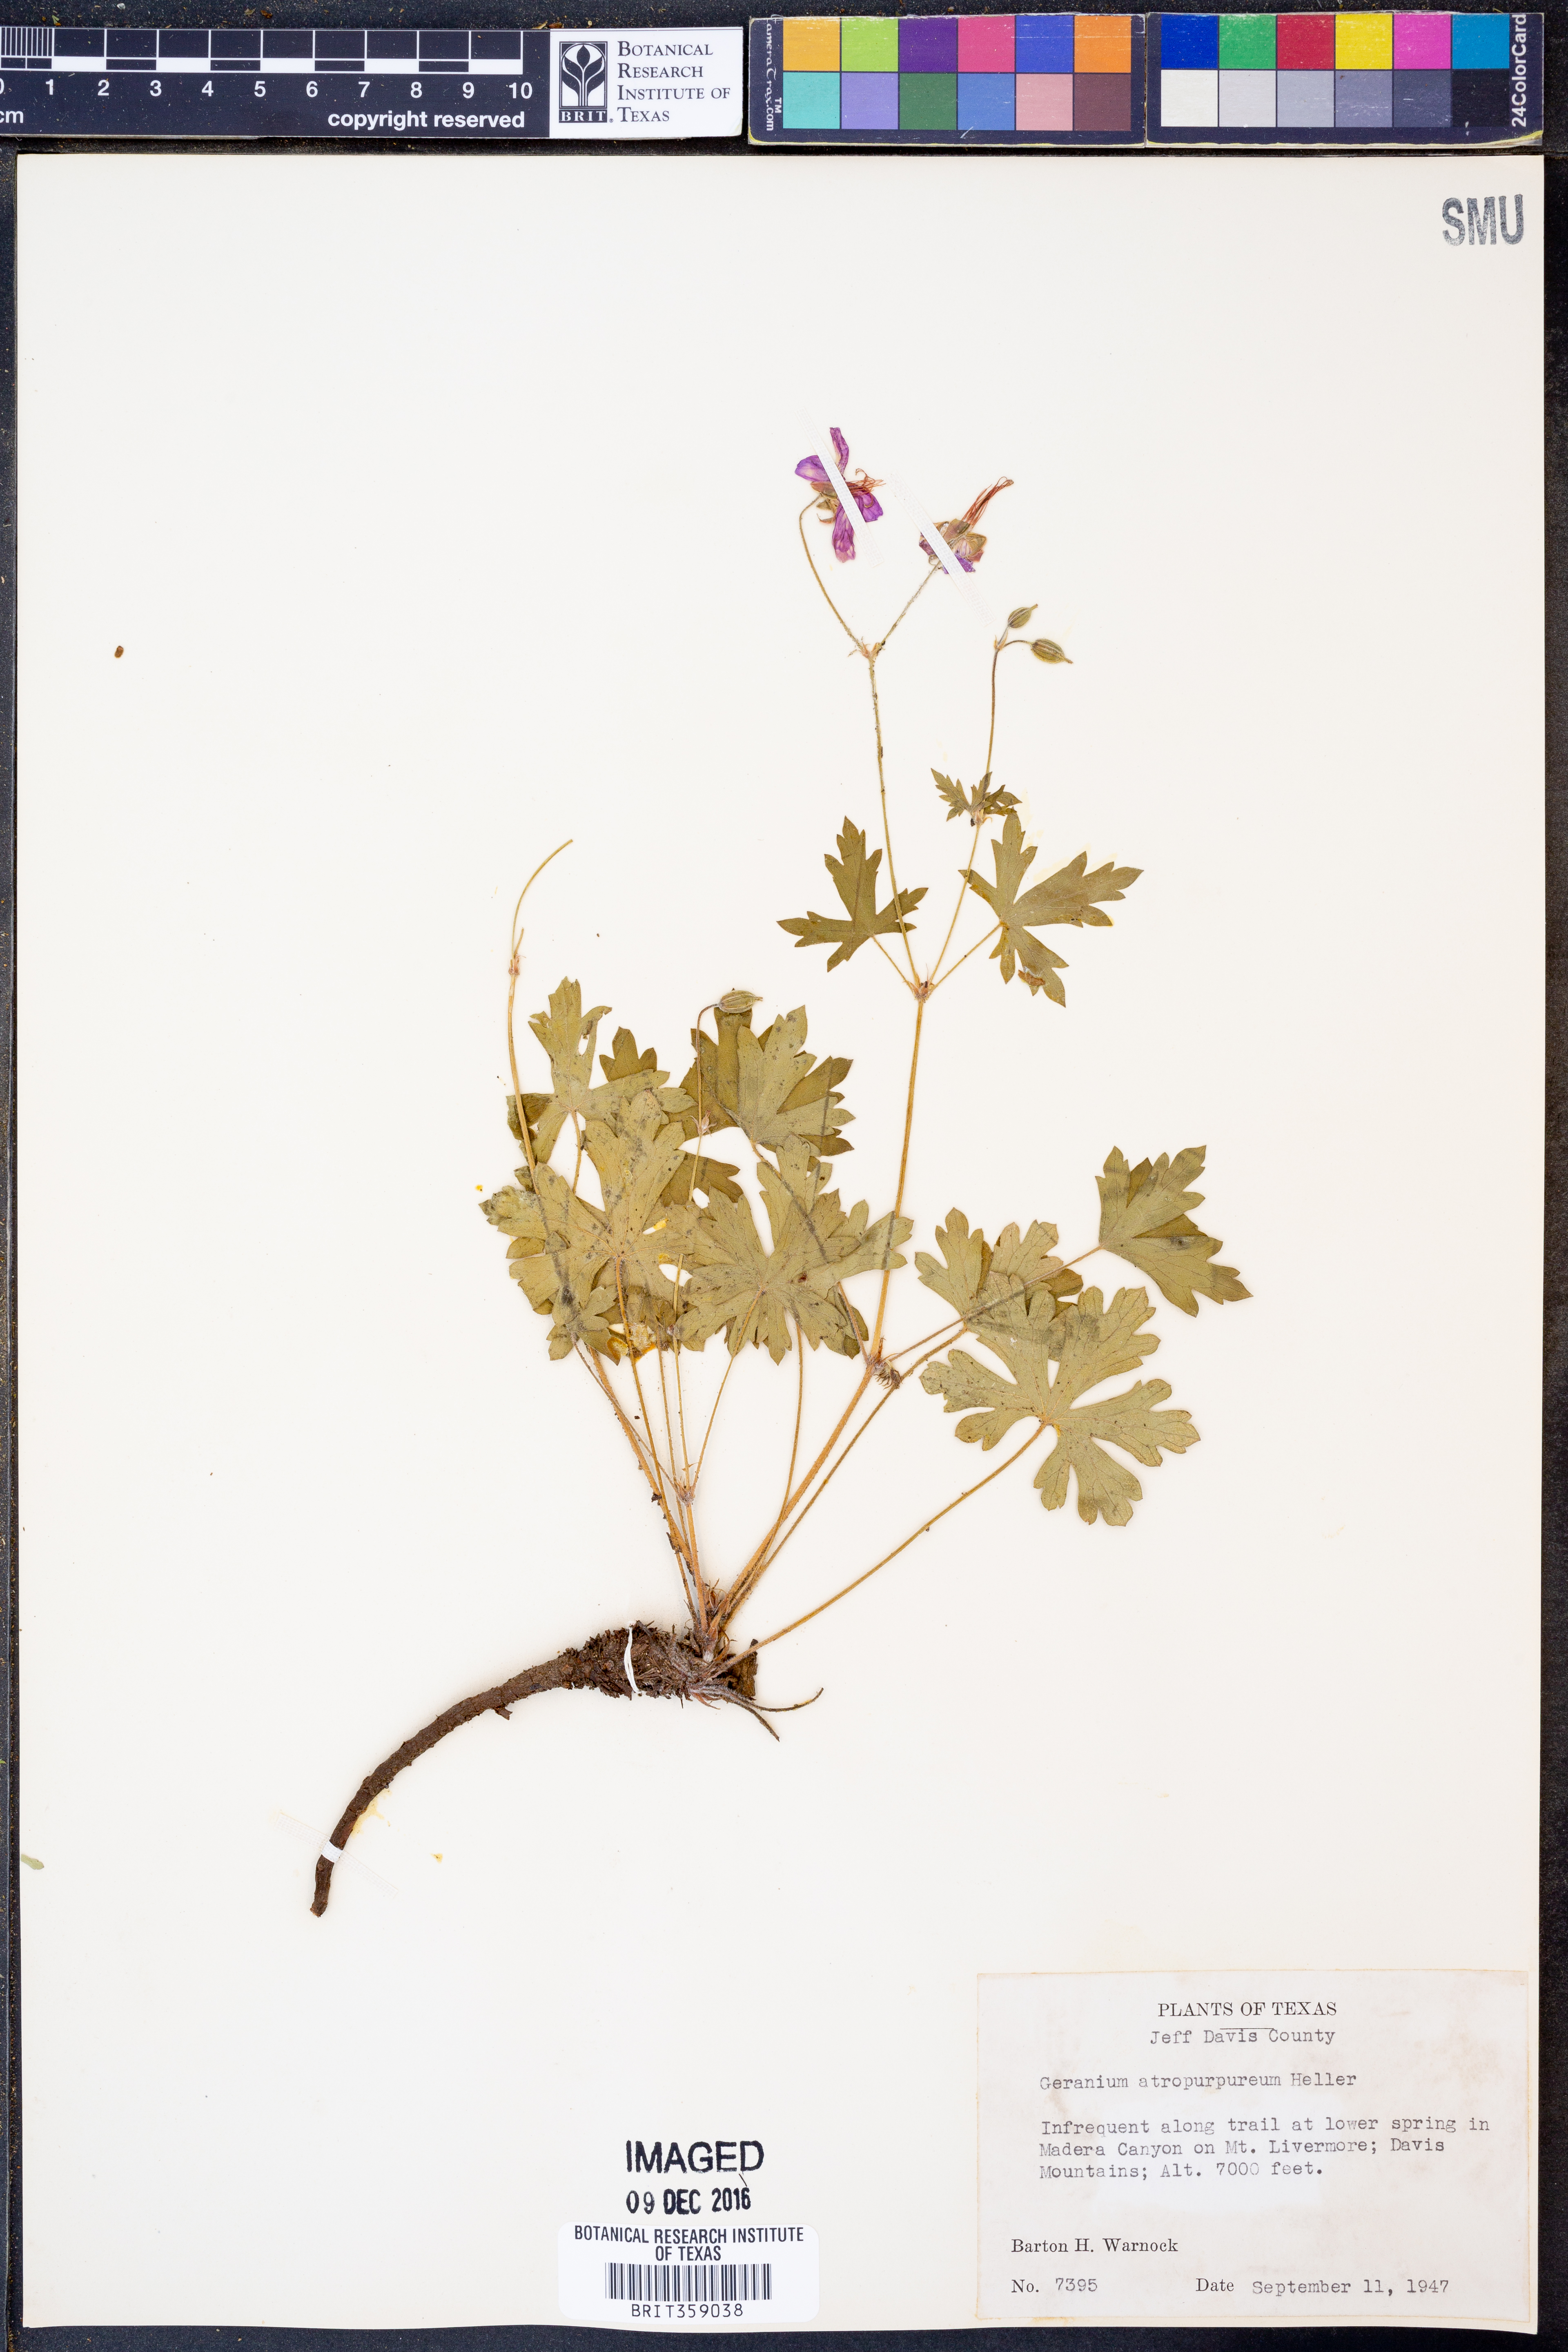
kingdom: Plantae
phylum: Tracheophyta
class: Magnoliopsida
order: Geraniales
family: Geraniaceae
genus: Geranium
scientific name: Geranium caespitosum
